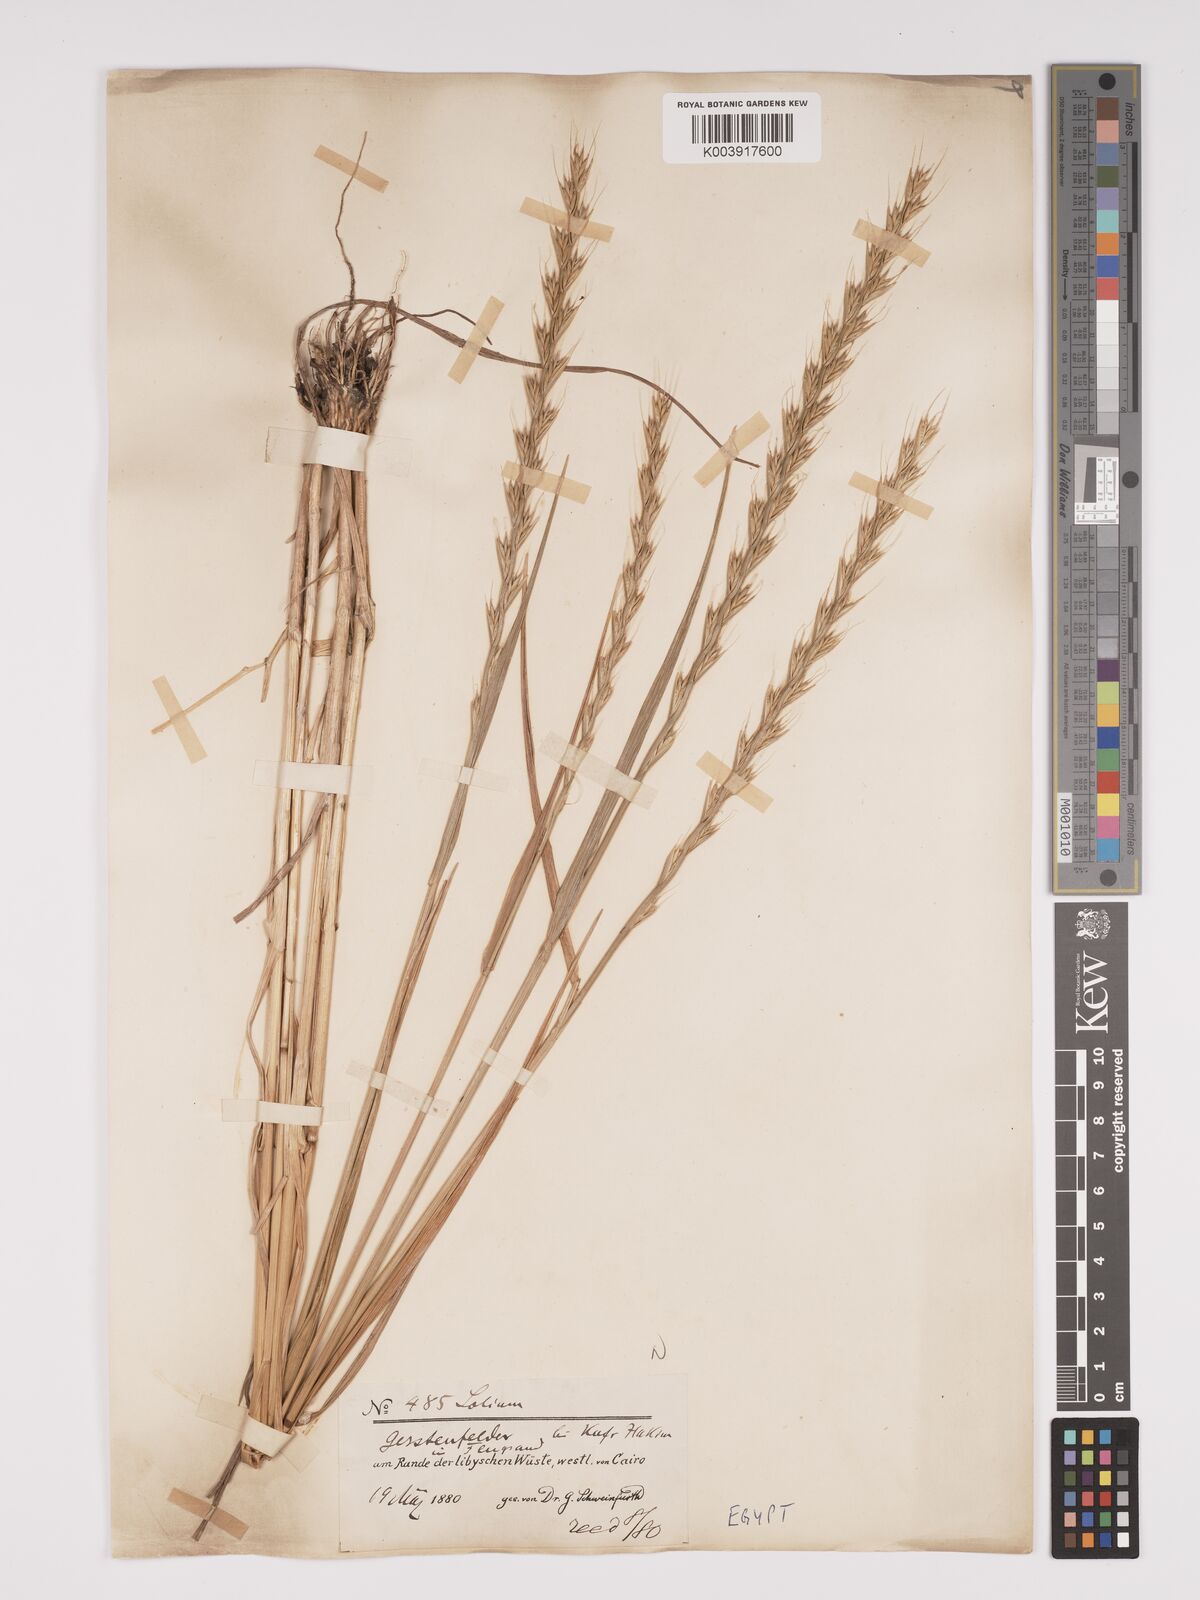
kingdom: Plantae
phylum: Tracheophyta
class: Liliopsida
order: Poales
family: Poaceae
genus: Lolium
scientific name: Lolium temulentum
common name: Darnel
